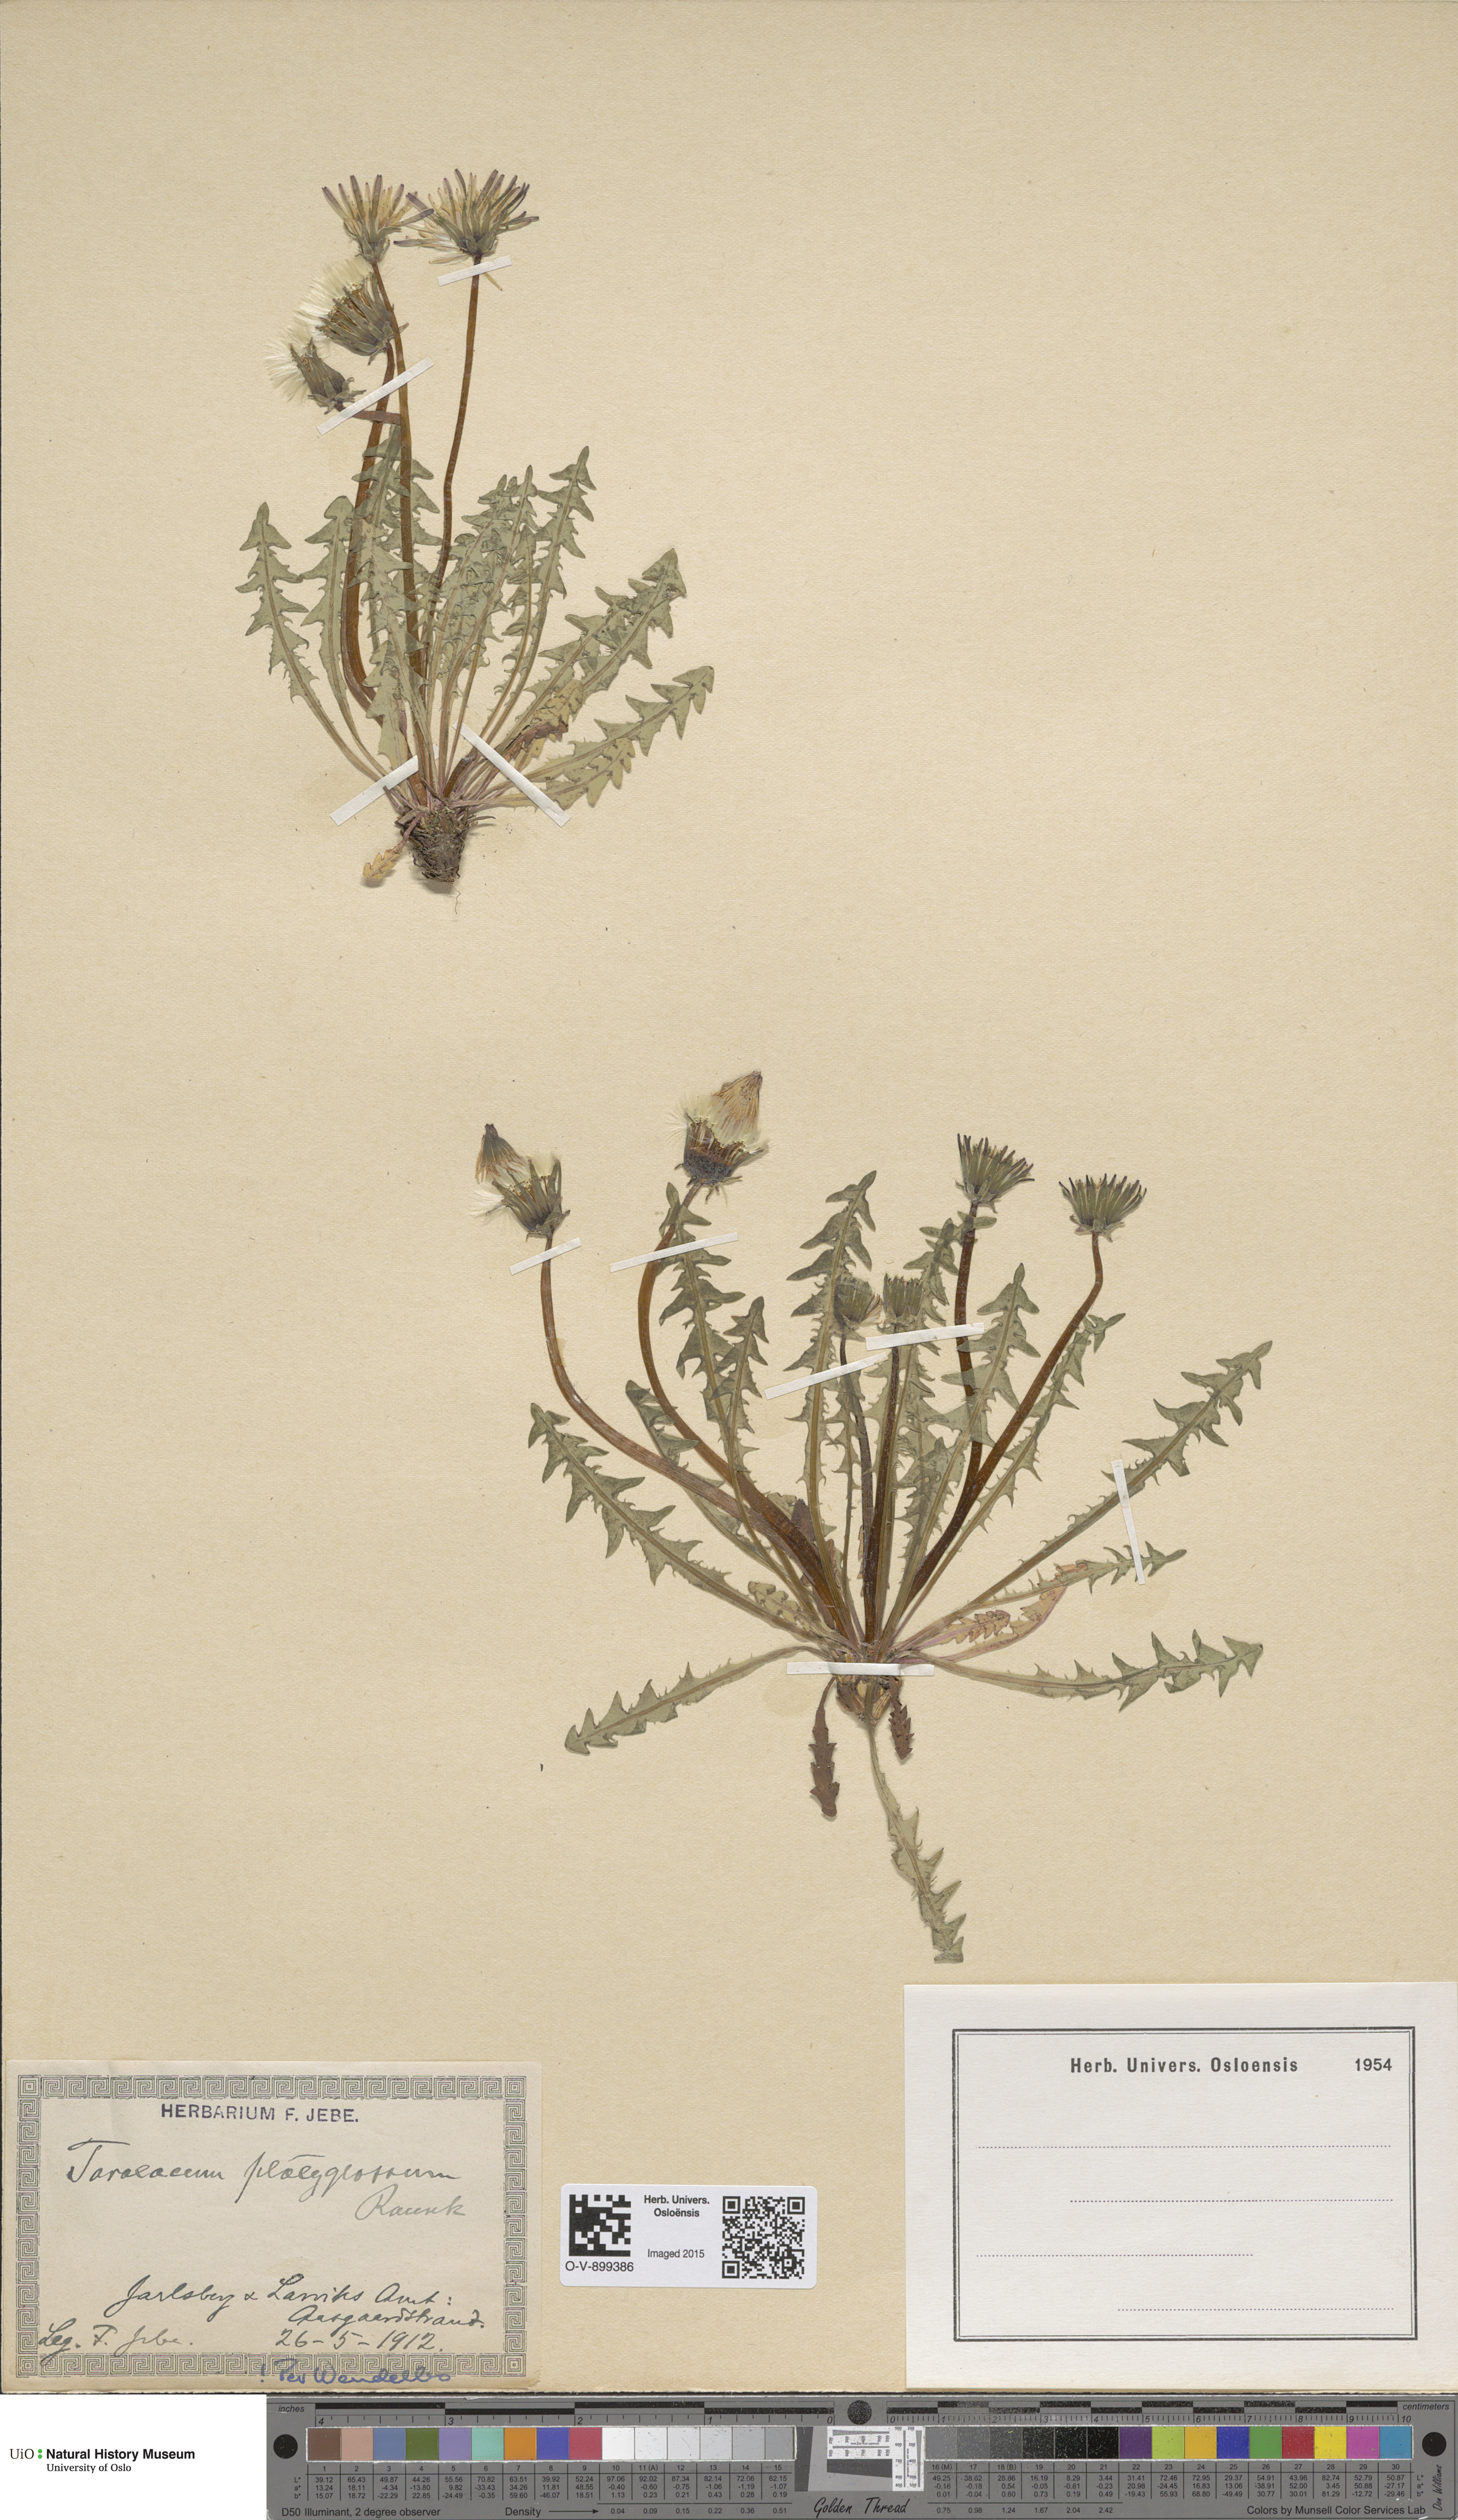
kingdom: Plantae
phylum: Tracheophyta
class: Magnoliopsida
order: Asterales
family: Asteraceae
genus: Taraxacum
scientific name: Taraxacum platyglossum
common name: Tongue-leaved dandelion
